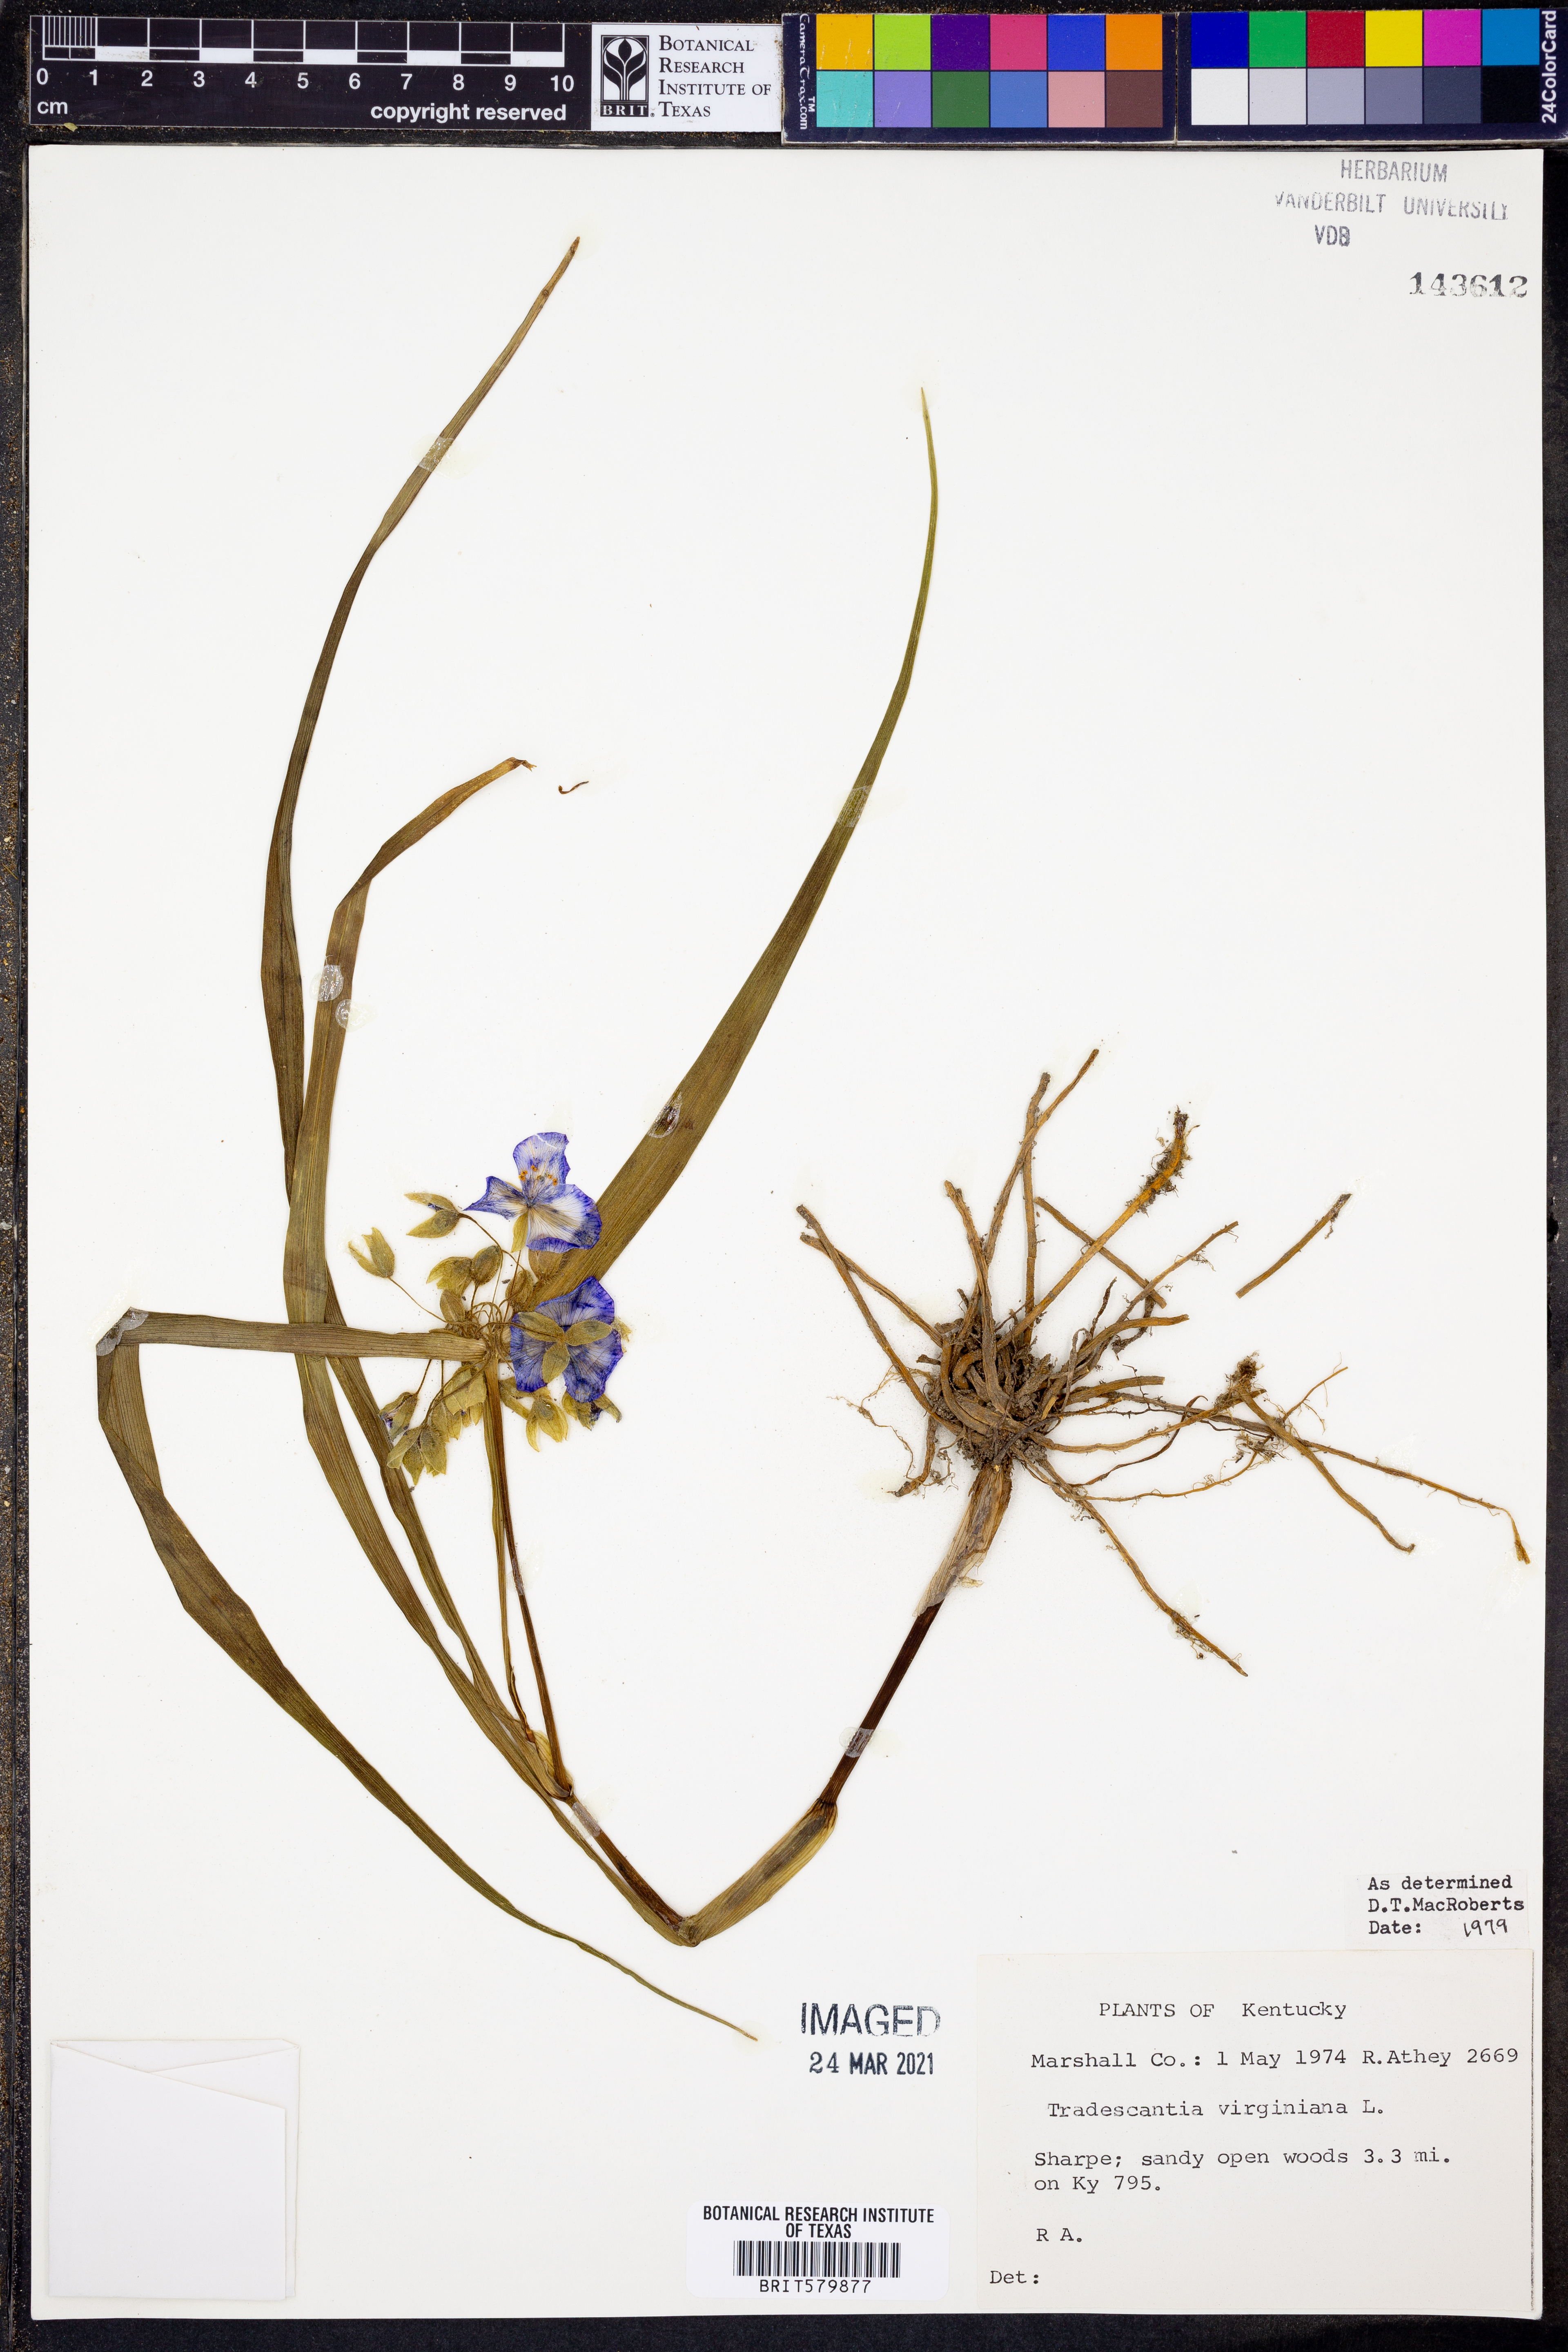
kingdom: Plantae
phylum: Tracheophyta
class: Liliopsida
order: Commelinales
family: Commelinaceae
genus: Tradescantia
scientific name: Tradescantia virginiana
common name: Spiderwort
